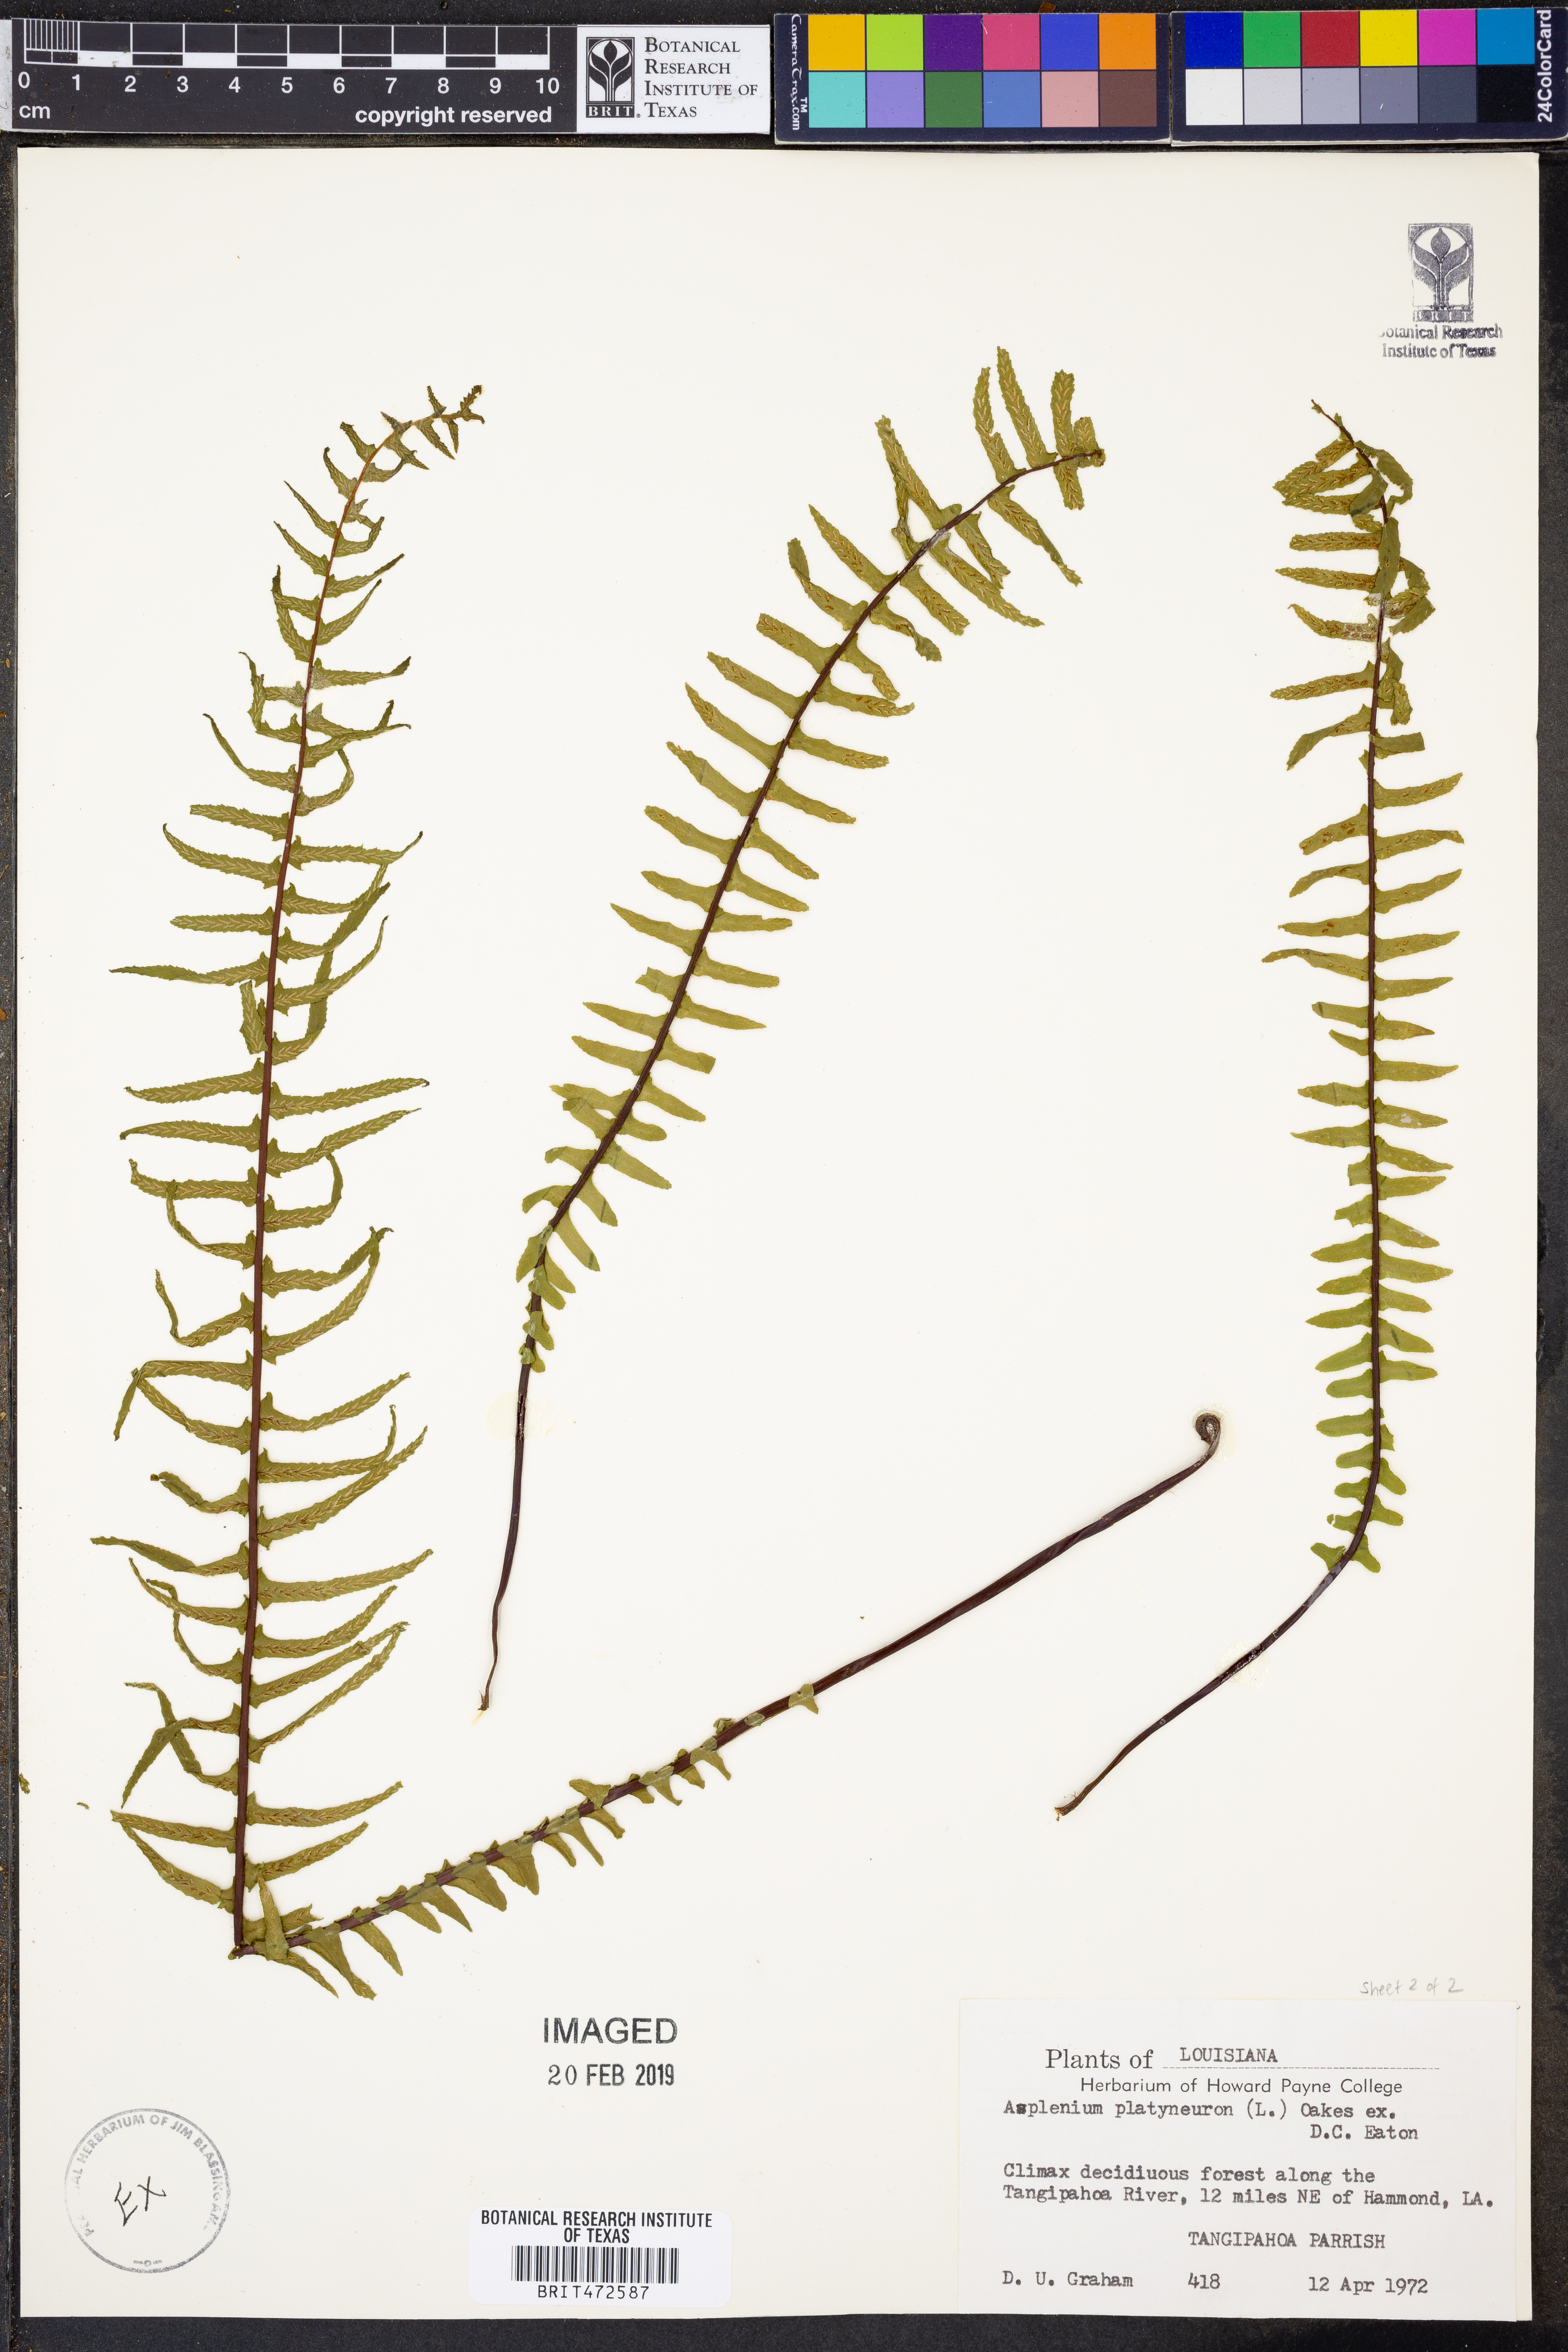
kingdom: Plantae
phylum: Tracheophyta
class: Polypodiopsida
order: Polypodiales
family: Aspleniaceae
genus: Asplenium
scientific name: Asplenium platyneuron
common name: Ebony spleenwort
